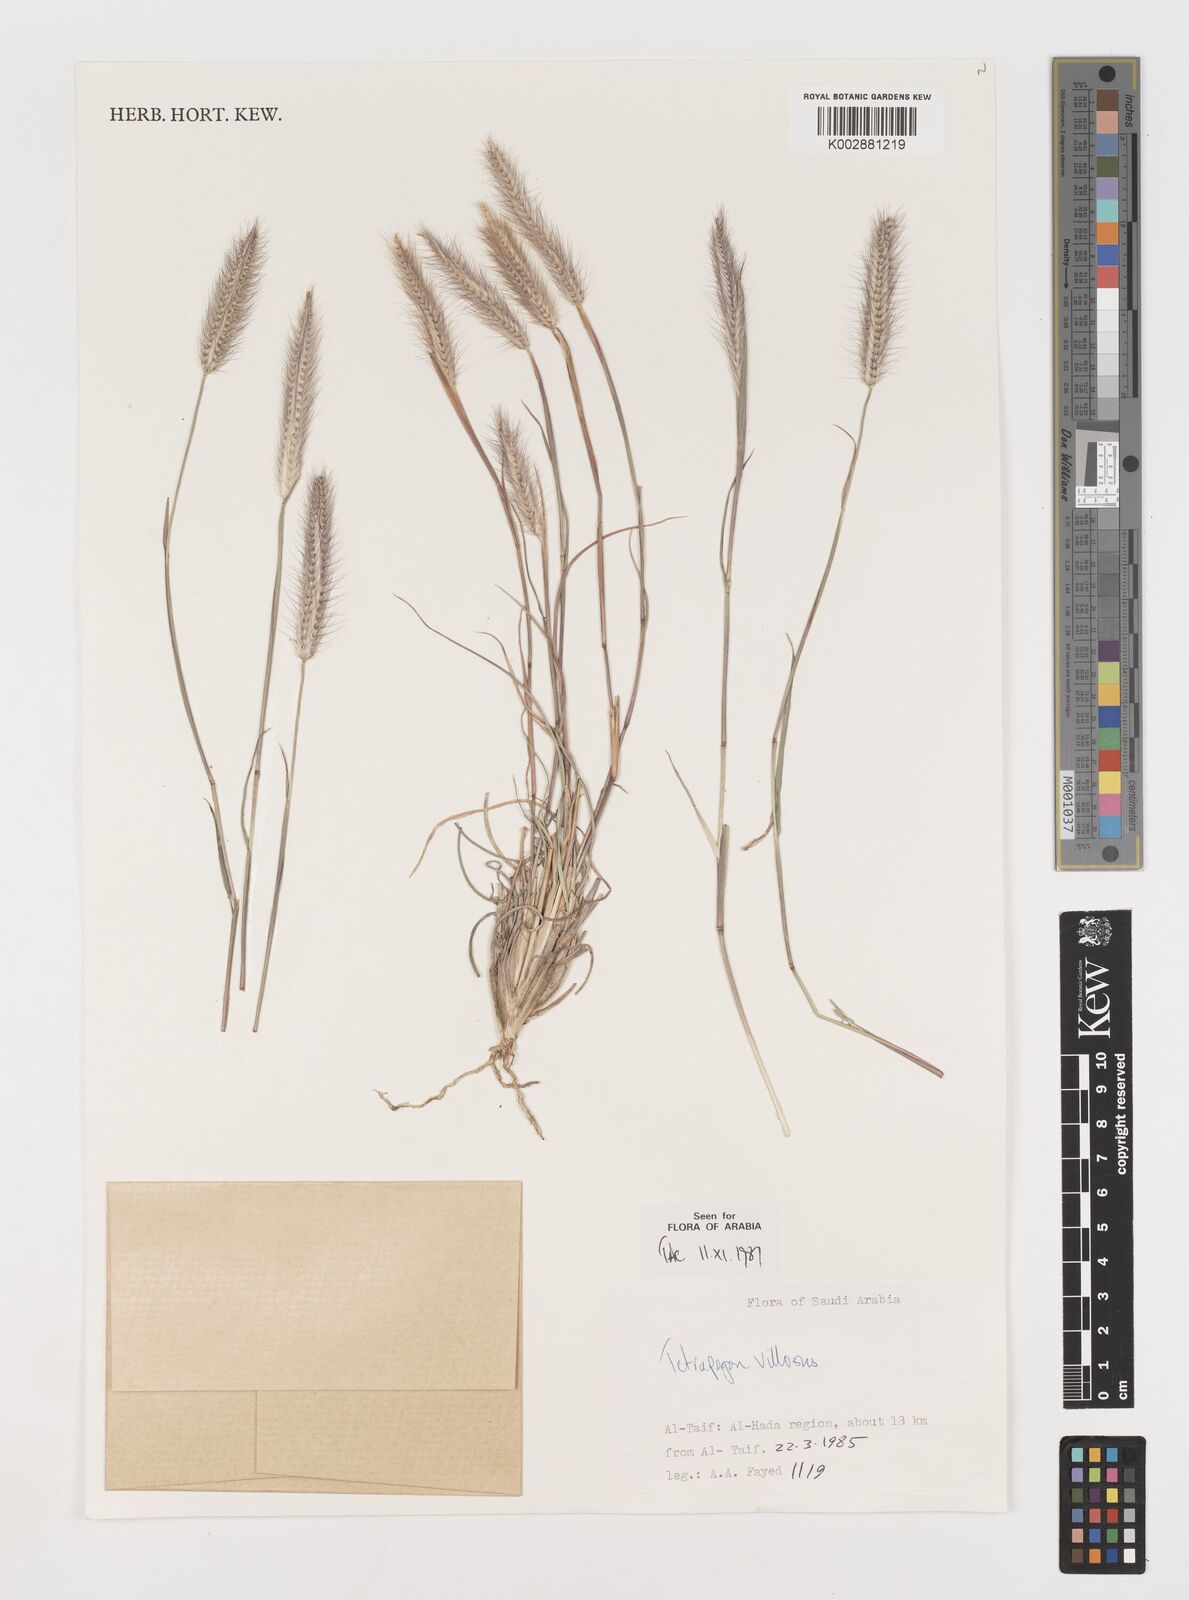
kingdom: Plantae
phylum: Tracheophyta
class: Liliopsida
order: Poales
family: Poaceae
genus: Tetrapogon
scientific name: Tetrapogon villosus
